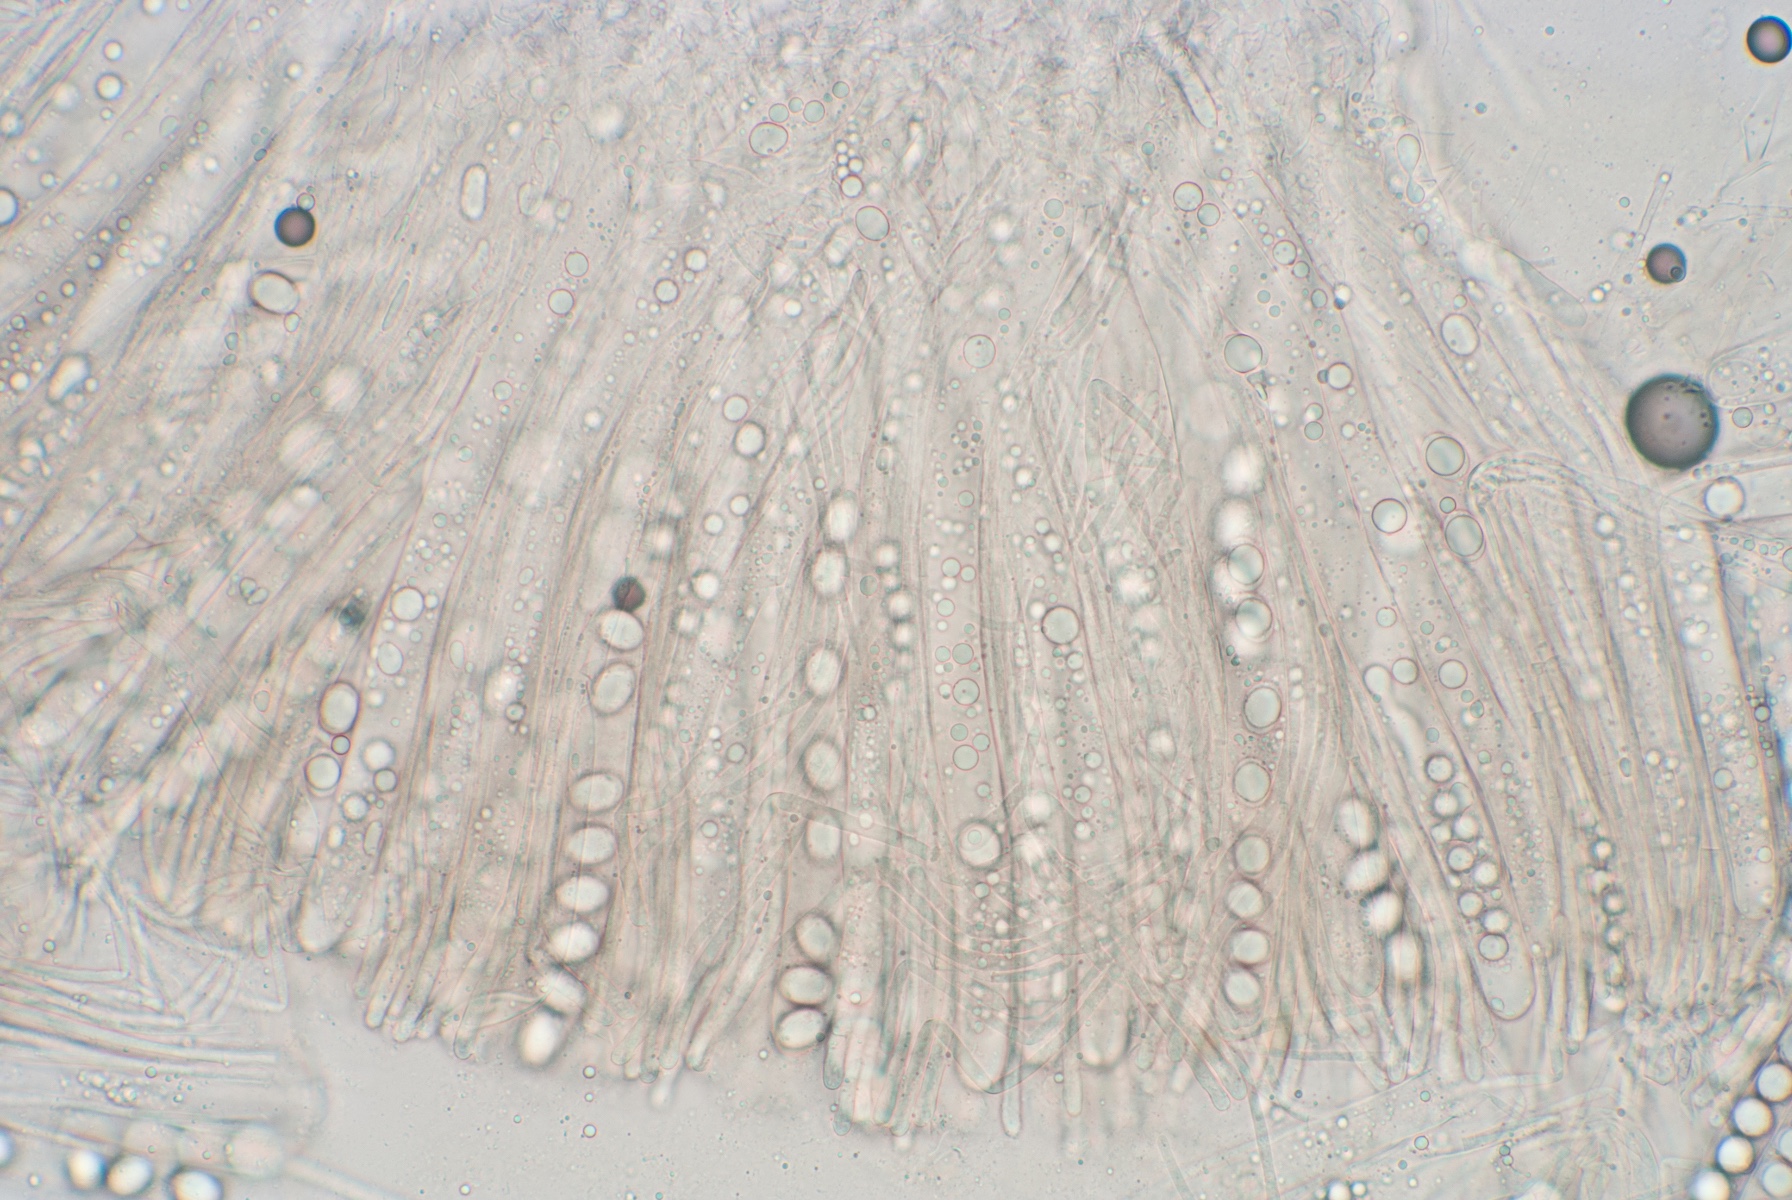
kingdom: Fungi
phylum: Ascomycota
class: Pezizomycetes
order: Pezizales
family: Helvellaceae
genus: Helvella
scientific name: Helvella
